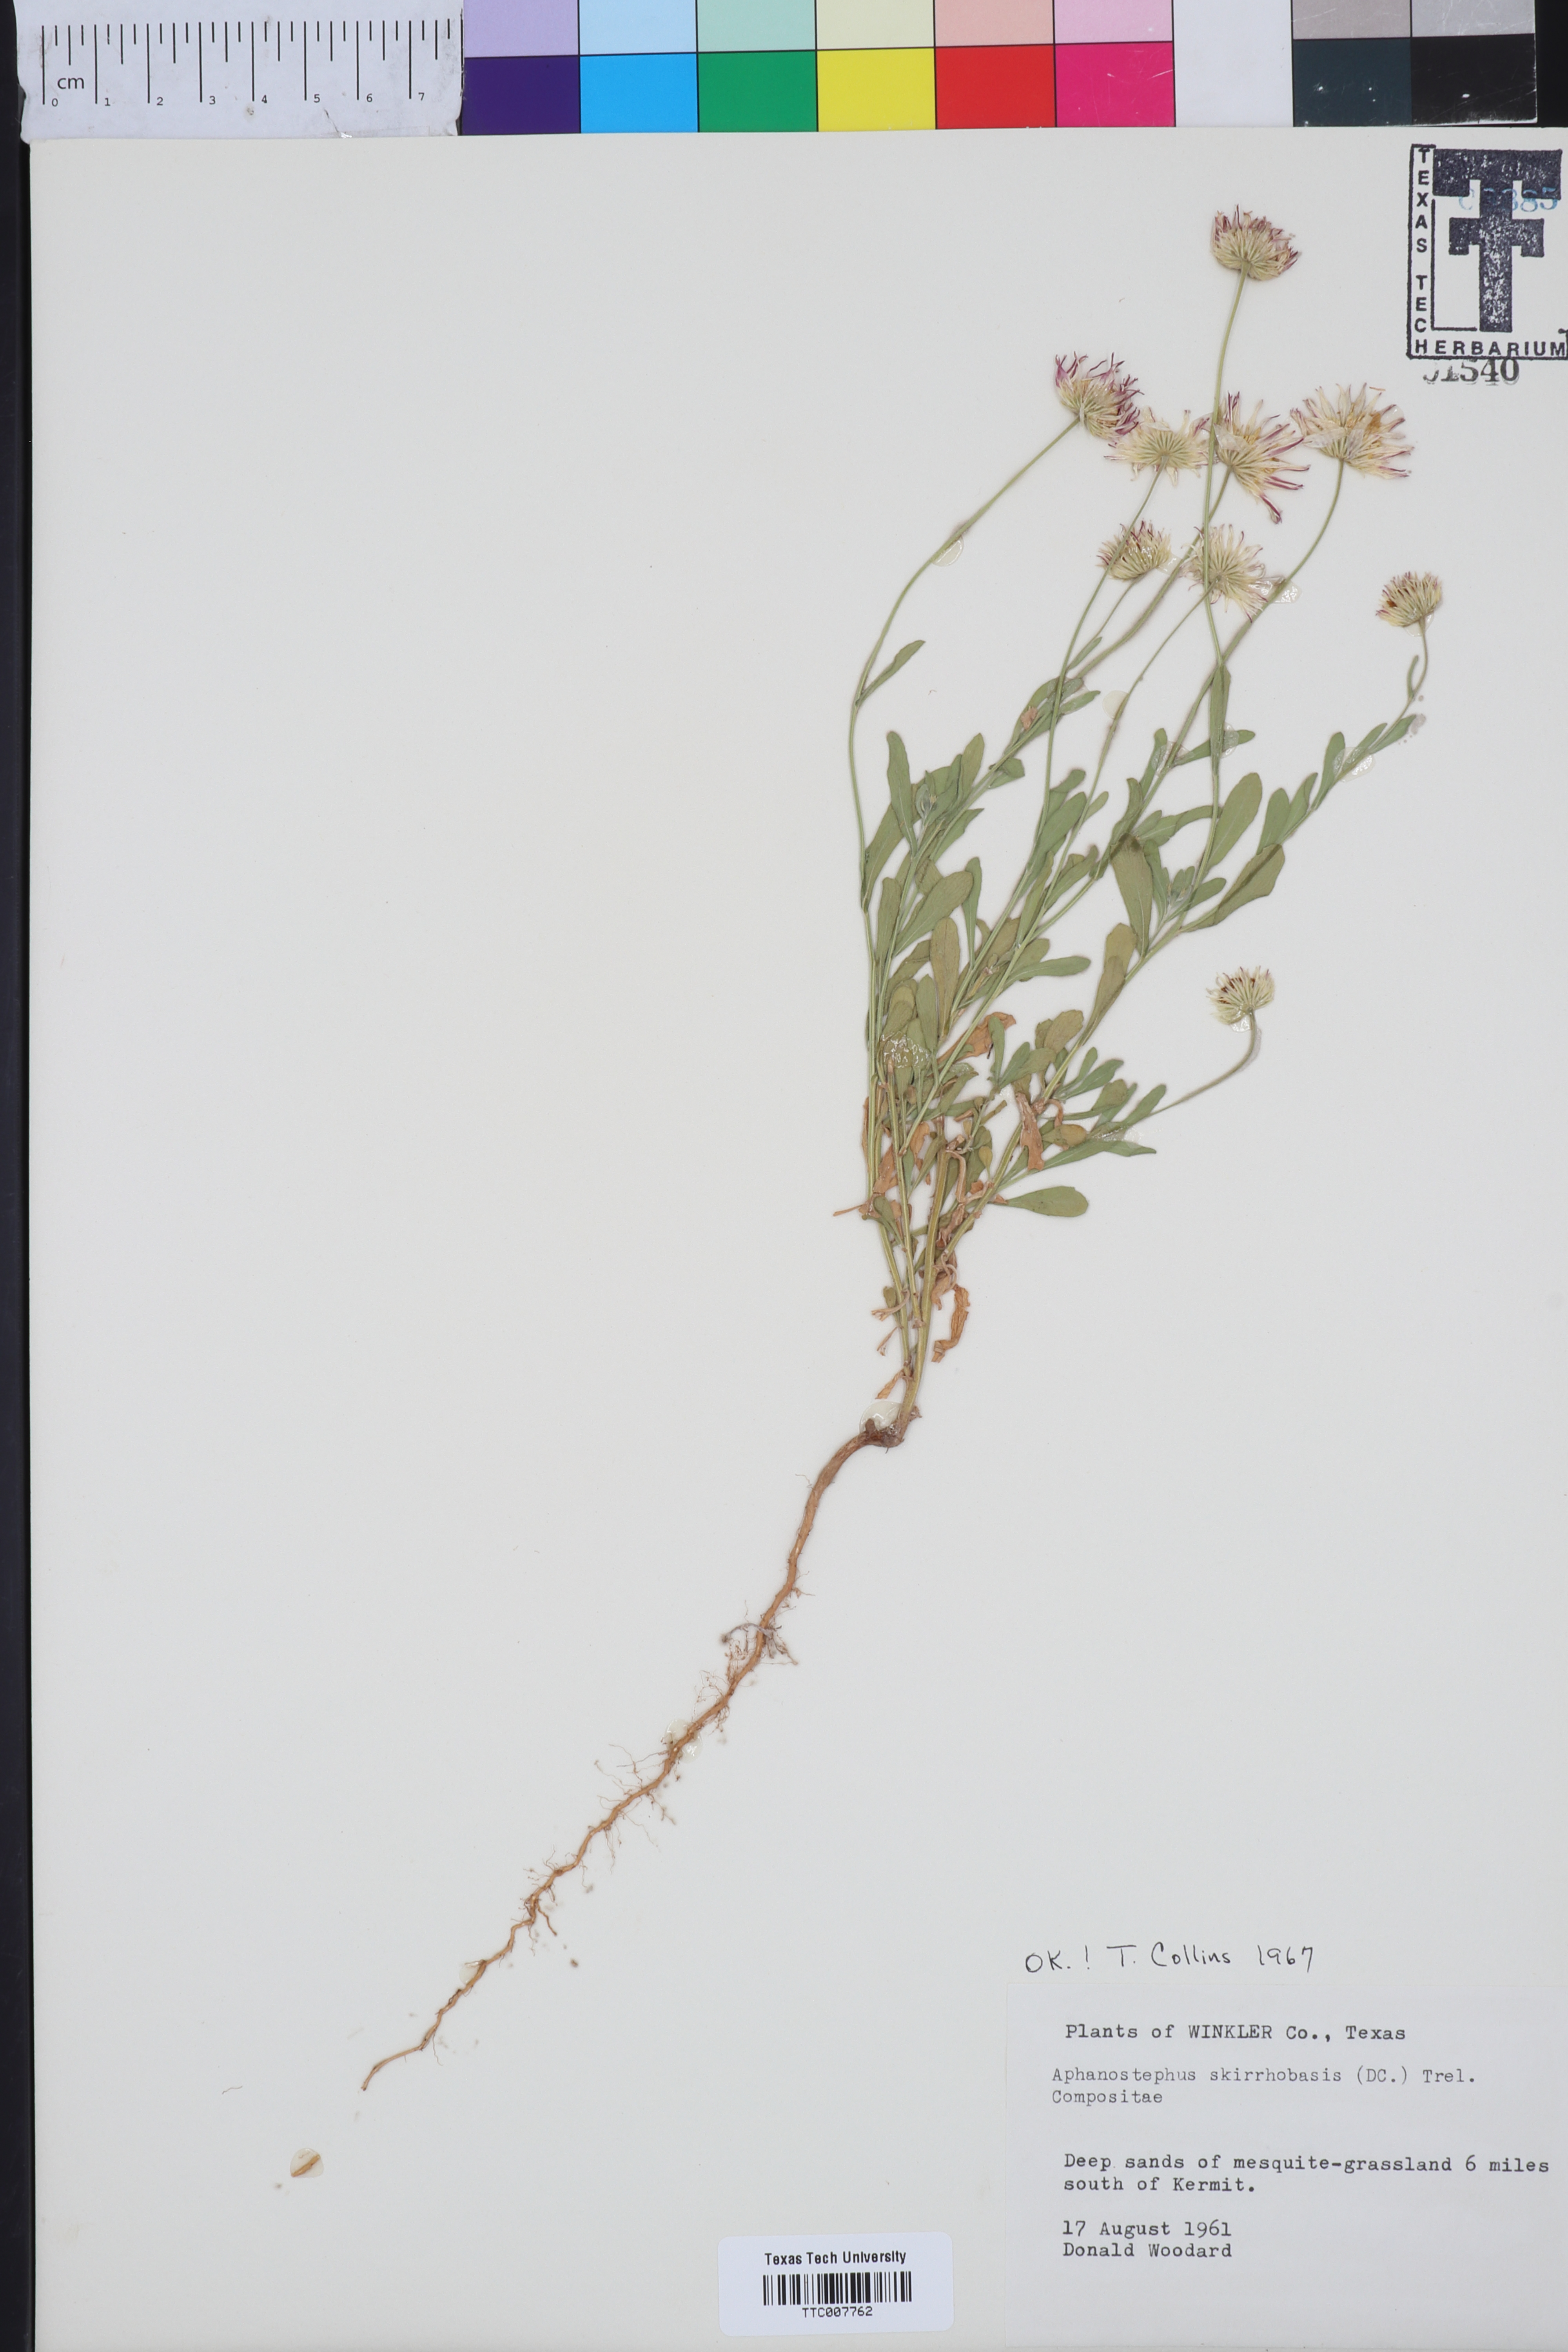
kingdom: Plantae
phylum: Tracheophyta
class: Magnoliopsida
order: Asterales
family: Asteraceae
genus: Aphanostephus
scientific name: Aphanostephus skirrhobasis
